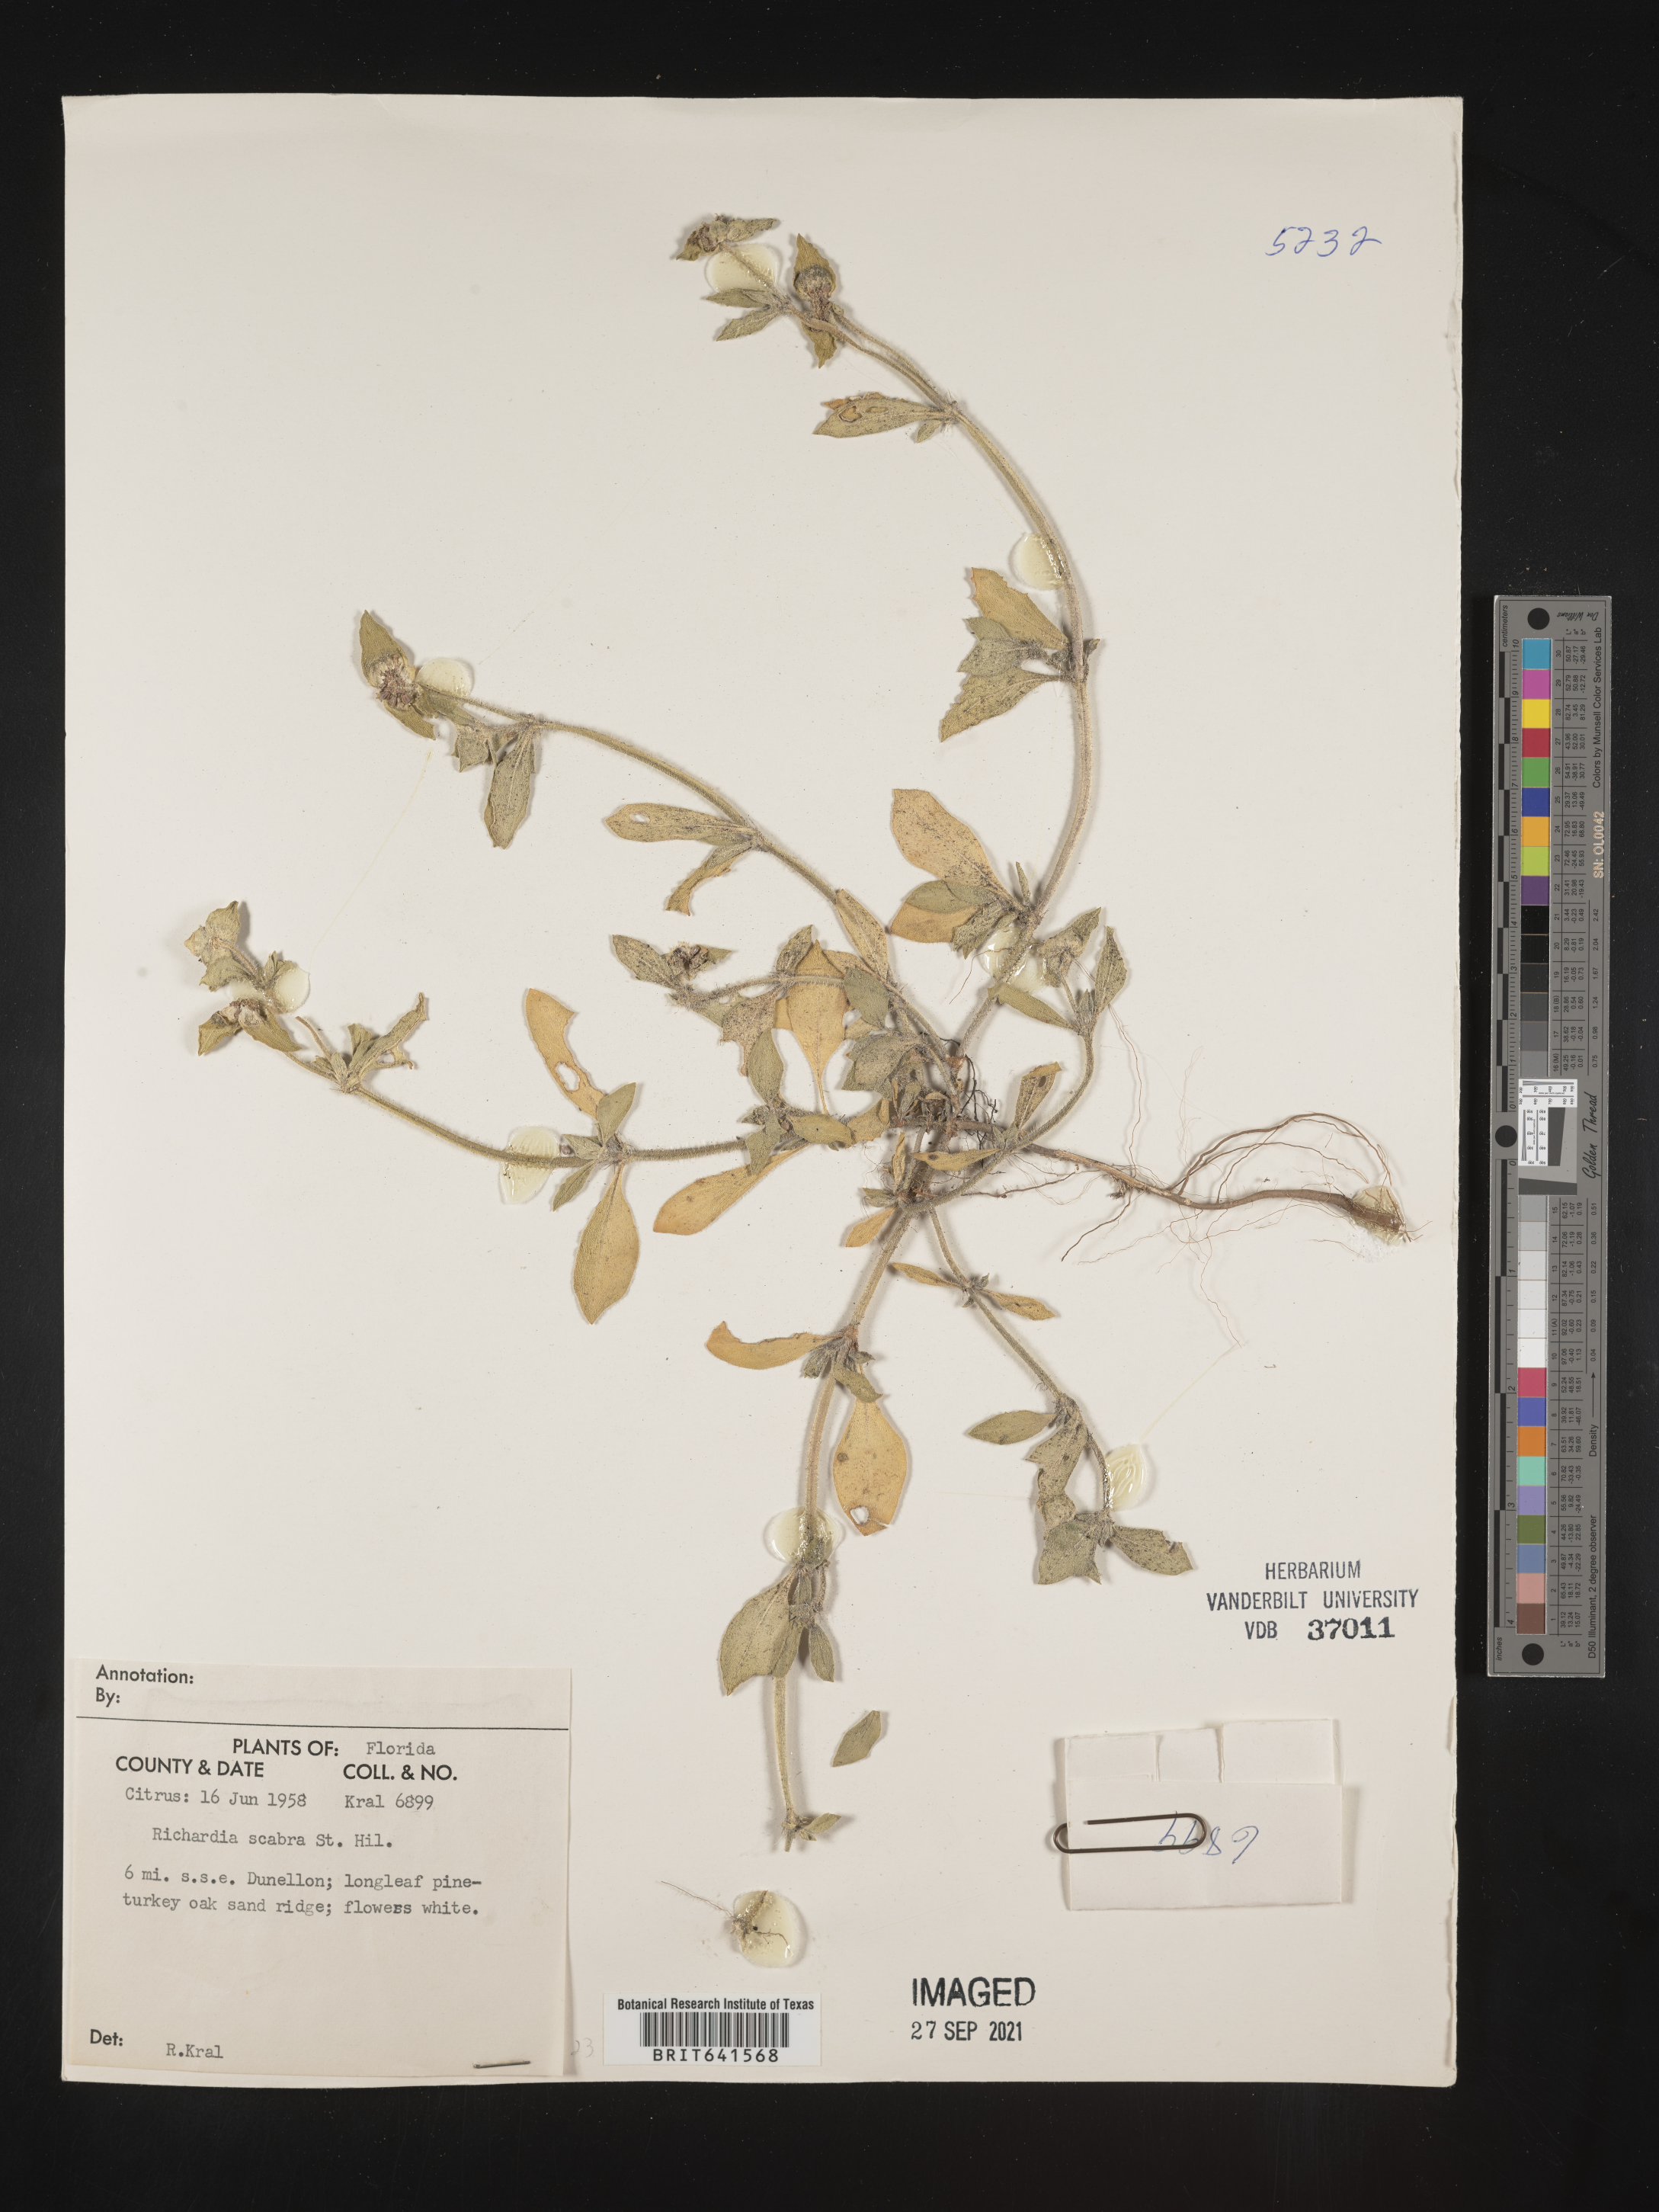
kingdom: Plantae
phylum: Tracheophyta
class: Magnoliopsida
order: Gentianales
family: Rubiaceae
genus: Richardia
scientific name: Richardia scabra
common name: Rough mexican clover
